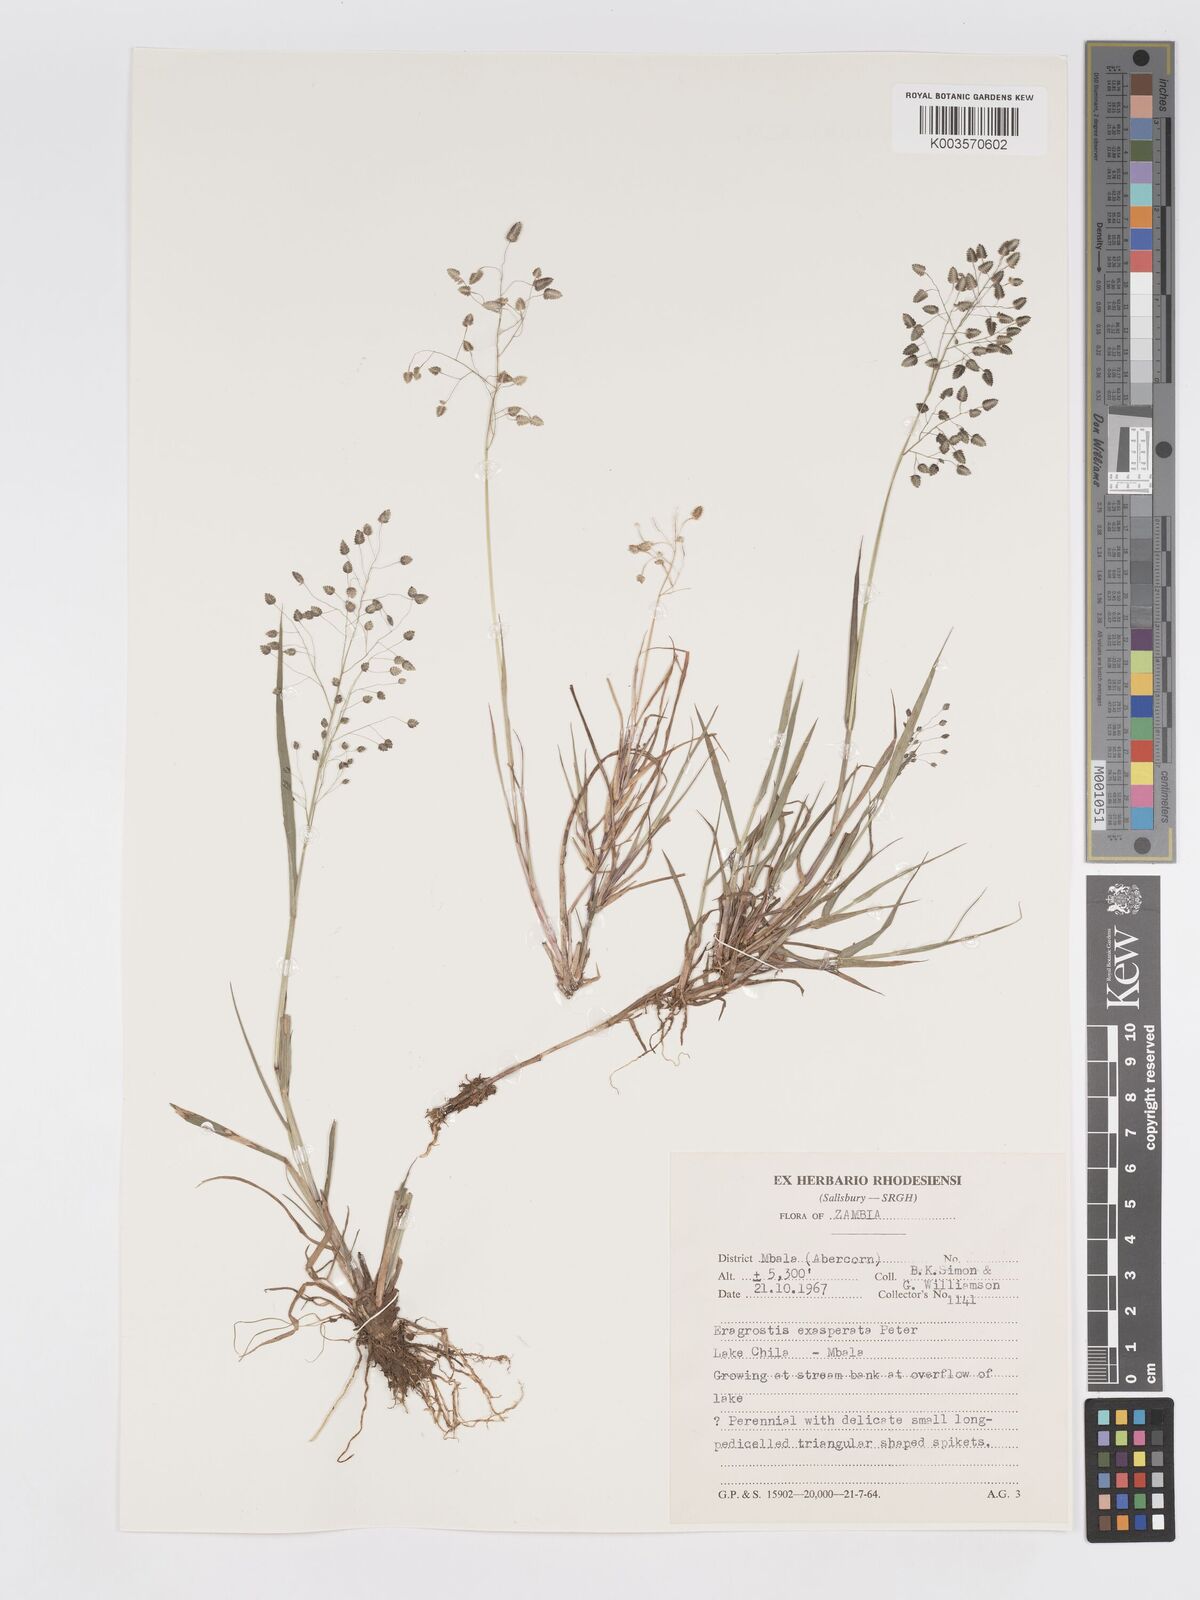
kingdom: Plantae
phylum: Tracheophyta
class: Liliopsida
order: Poales
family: Poaceae
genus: Eragrostis
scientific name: Eragrostis exasperata
